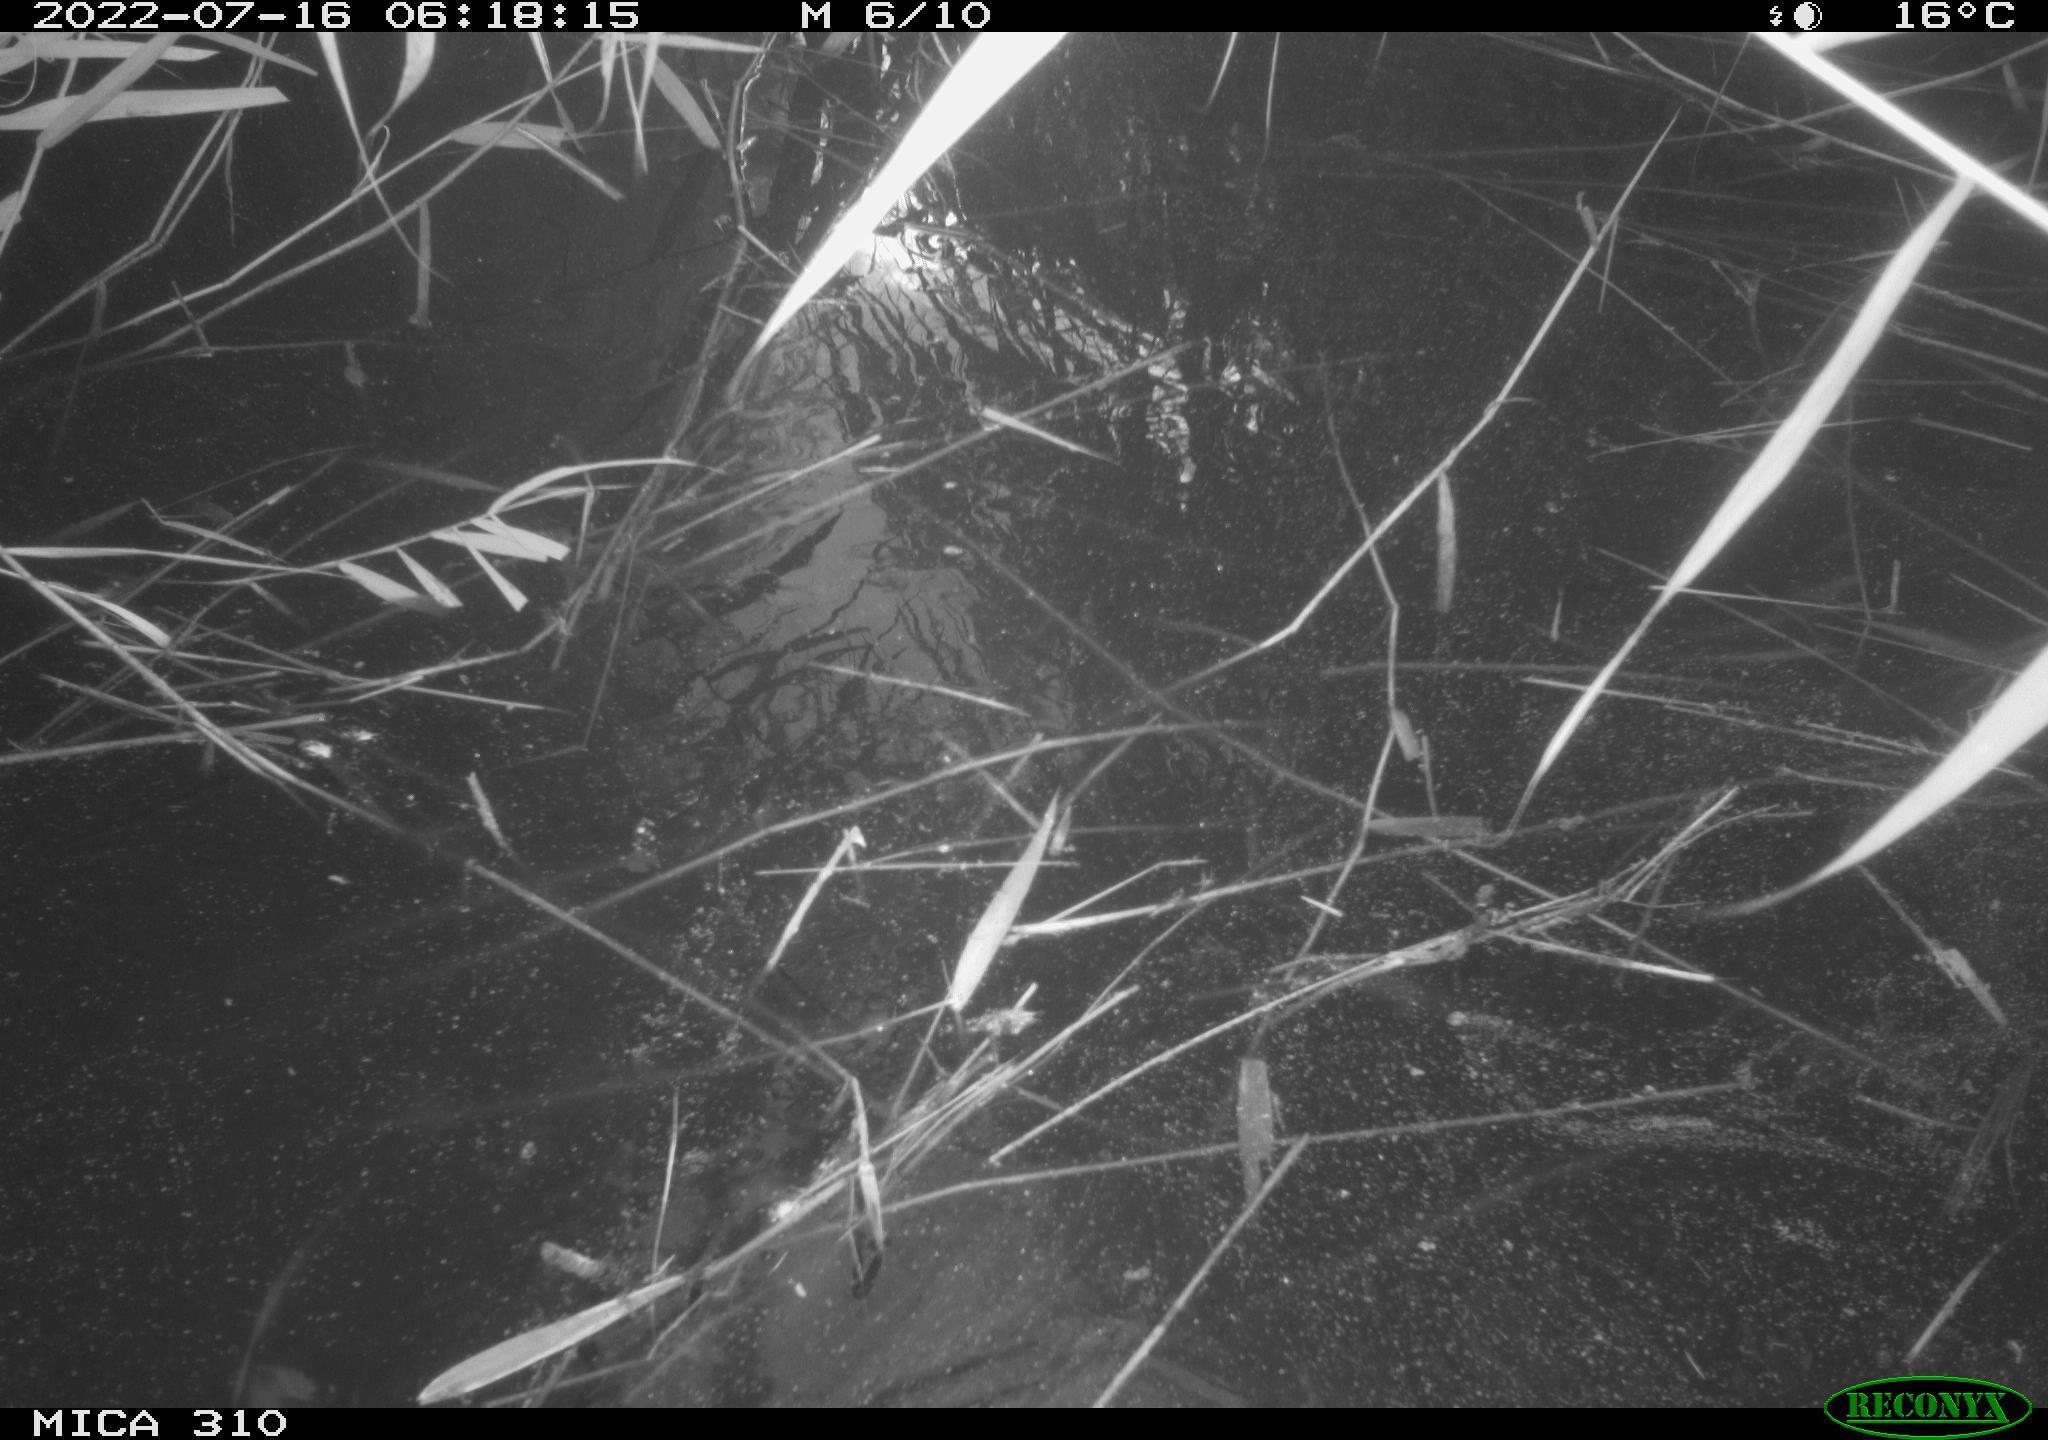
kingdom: Animalia
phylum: Chordata
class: Aves
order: Gruiformes
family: Rallidae
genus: Gallinula
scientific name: Gallinula chloropus
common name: Common moorhen
